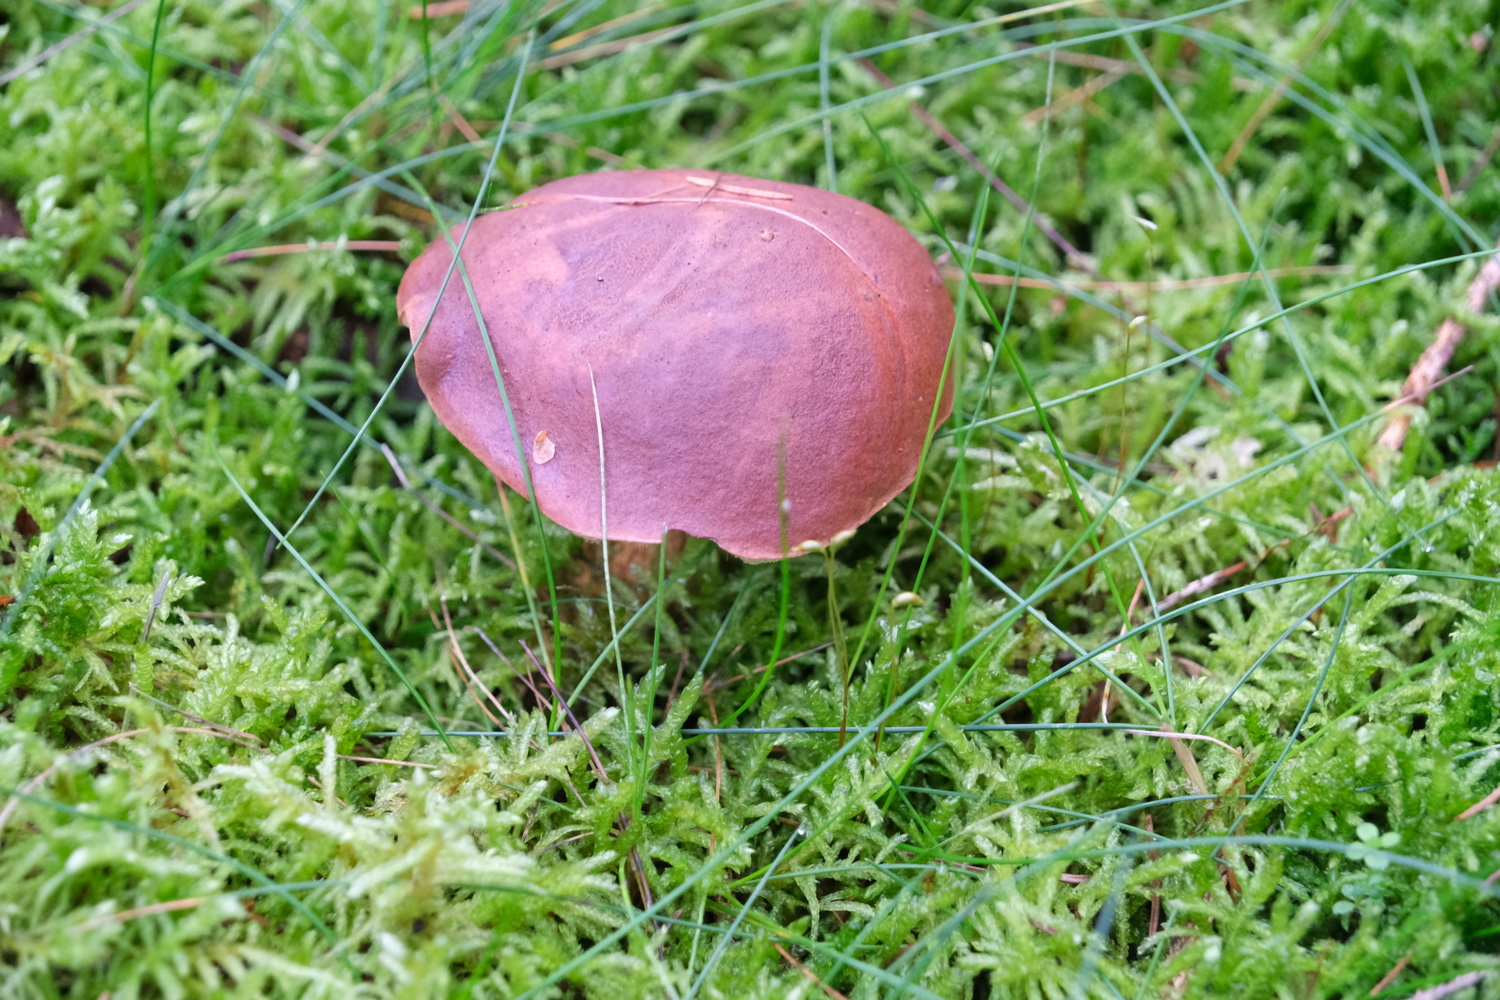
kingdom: Fungi
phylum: Basidiomycota
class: Agaricomycetes
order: Boletales
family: Boletaceae
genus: Imleria
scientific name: Imleria badia
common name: brunstokket rørhat
